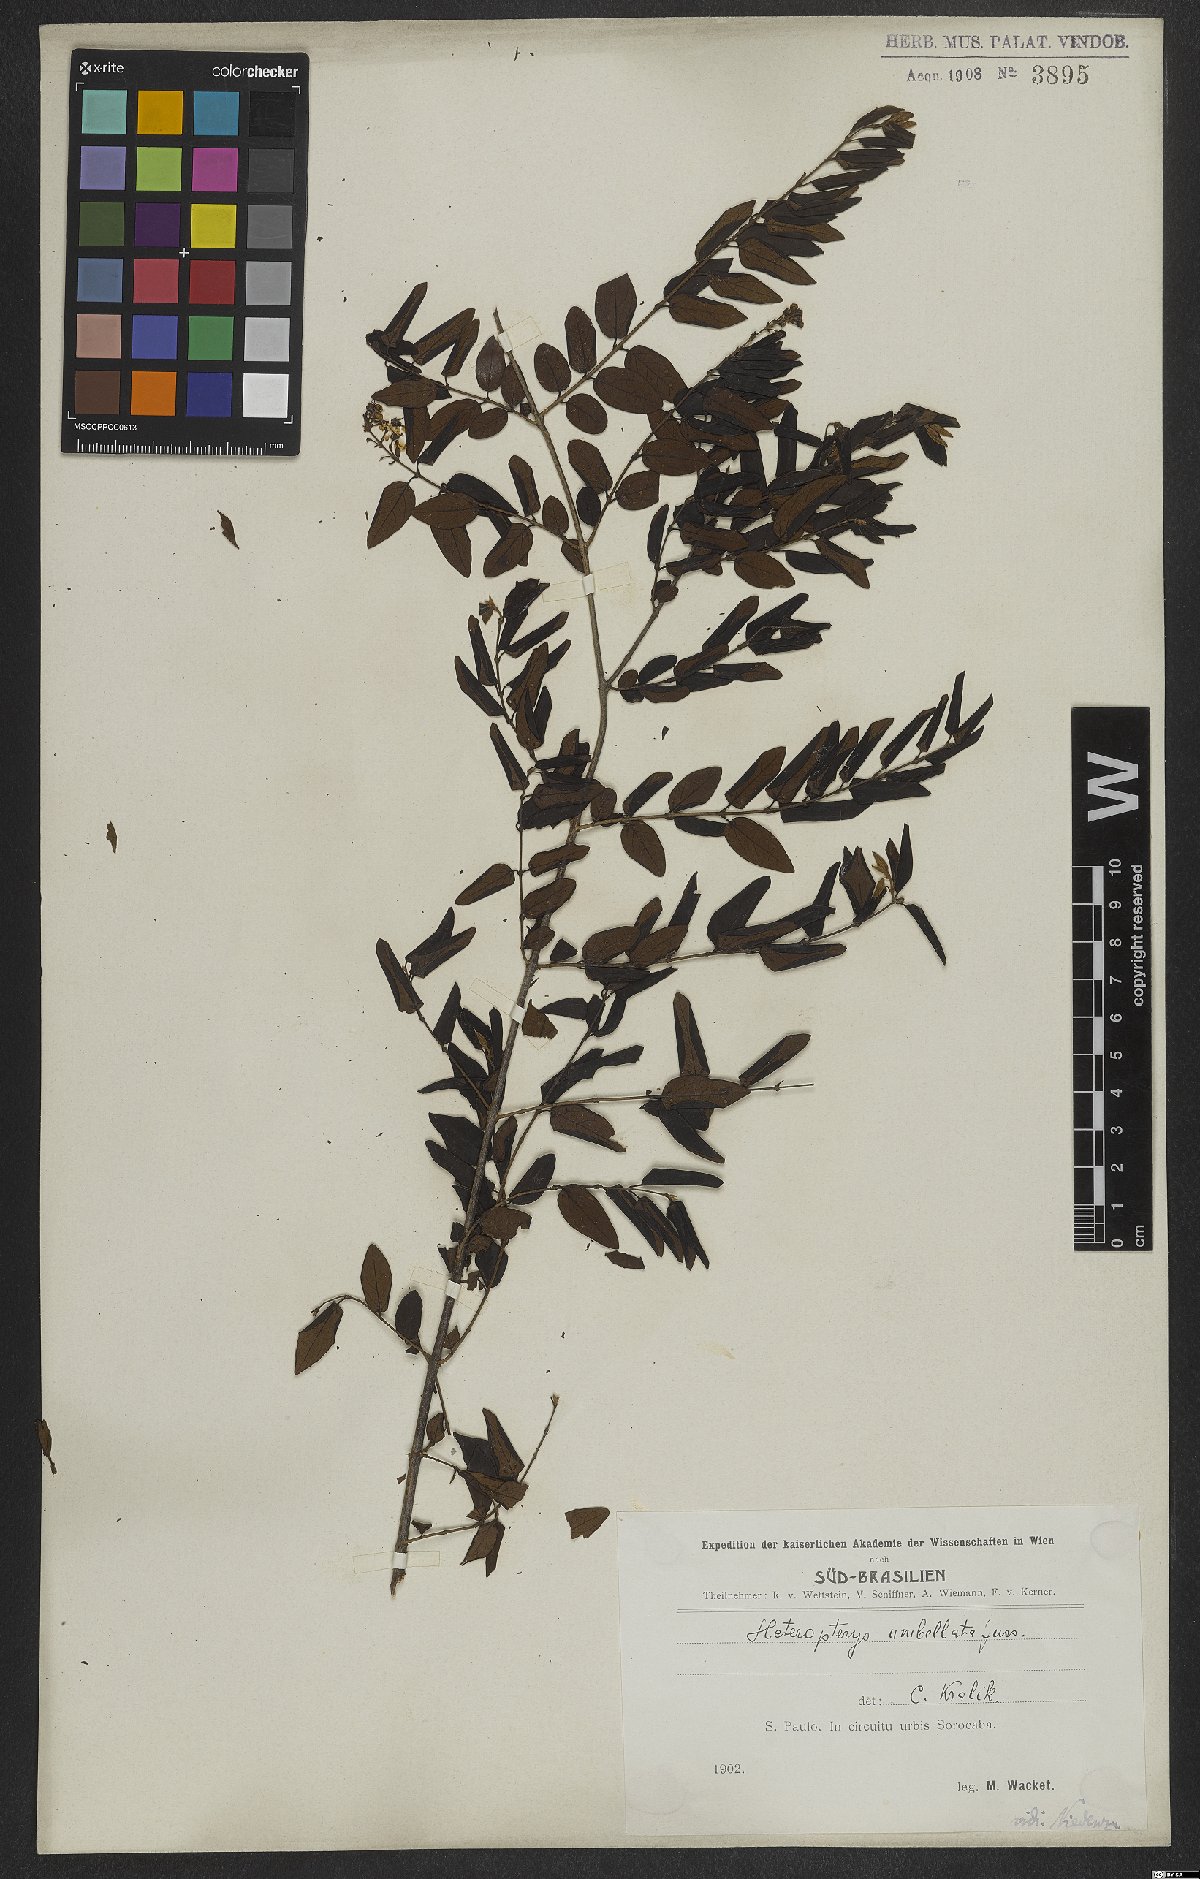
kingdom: Plantae
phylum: Tracheophyta
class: Magnoliopsida
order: Malpighiales
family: Malpighiaceae
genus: Heteropterys
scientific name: Heteropterys umbellata
